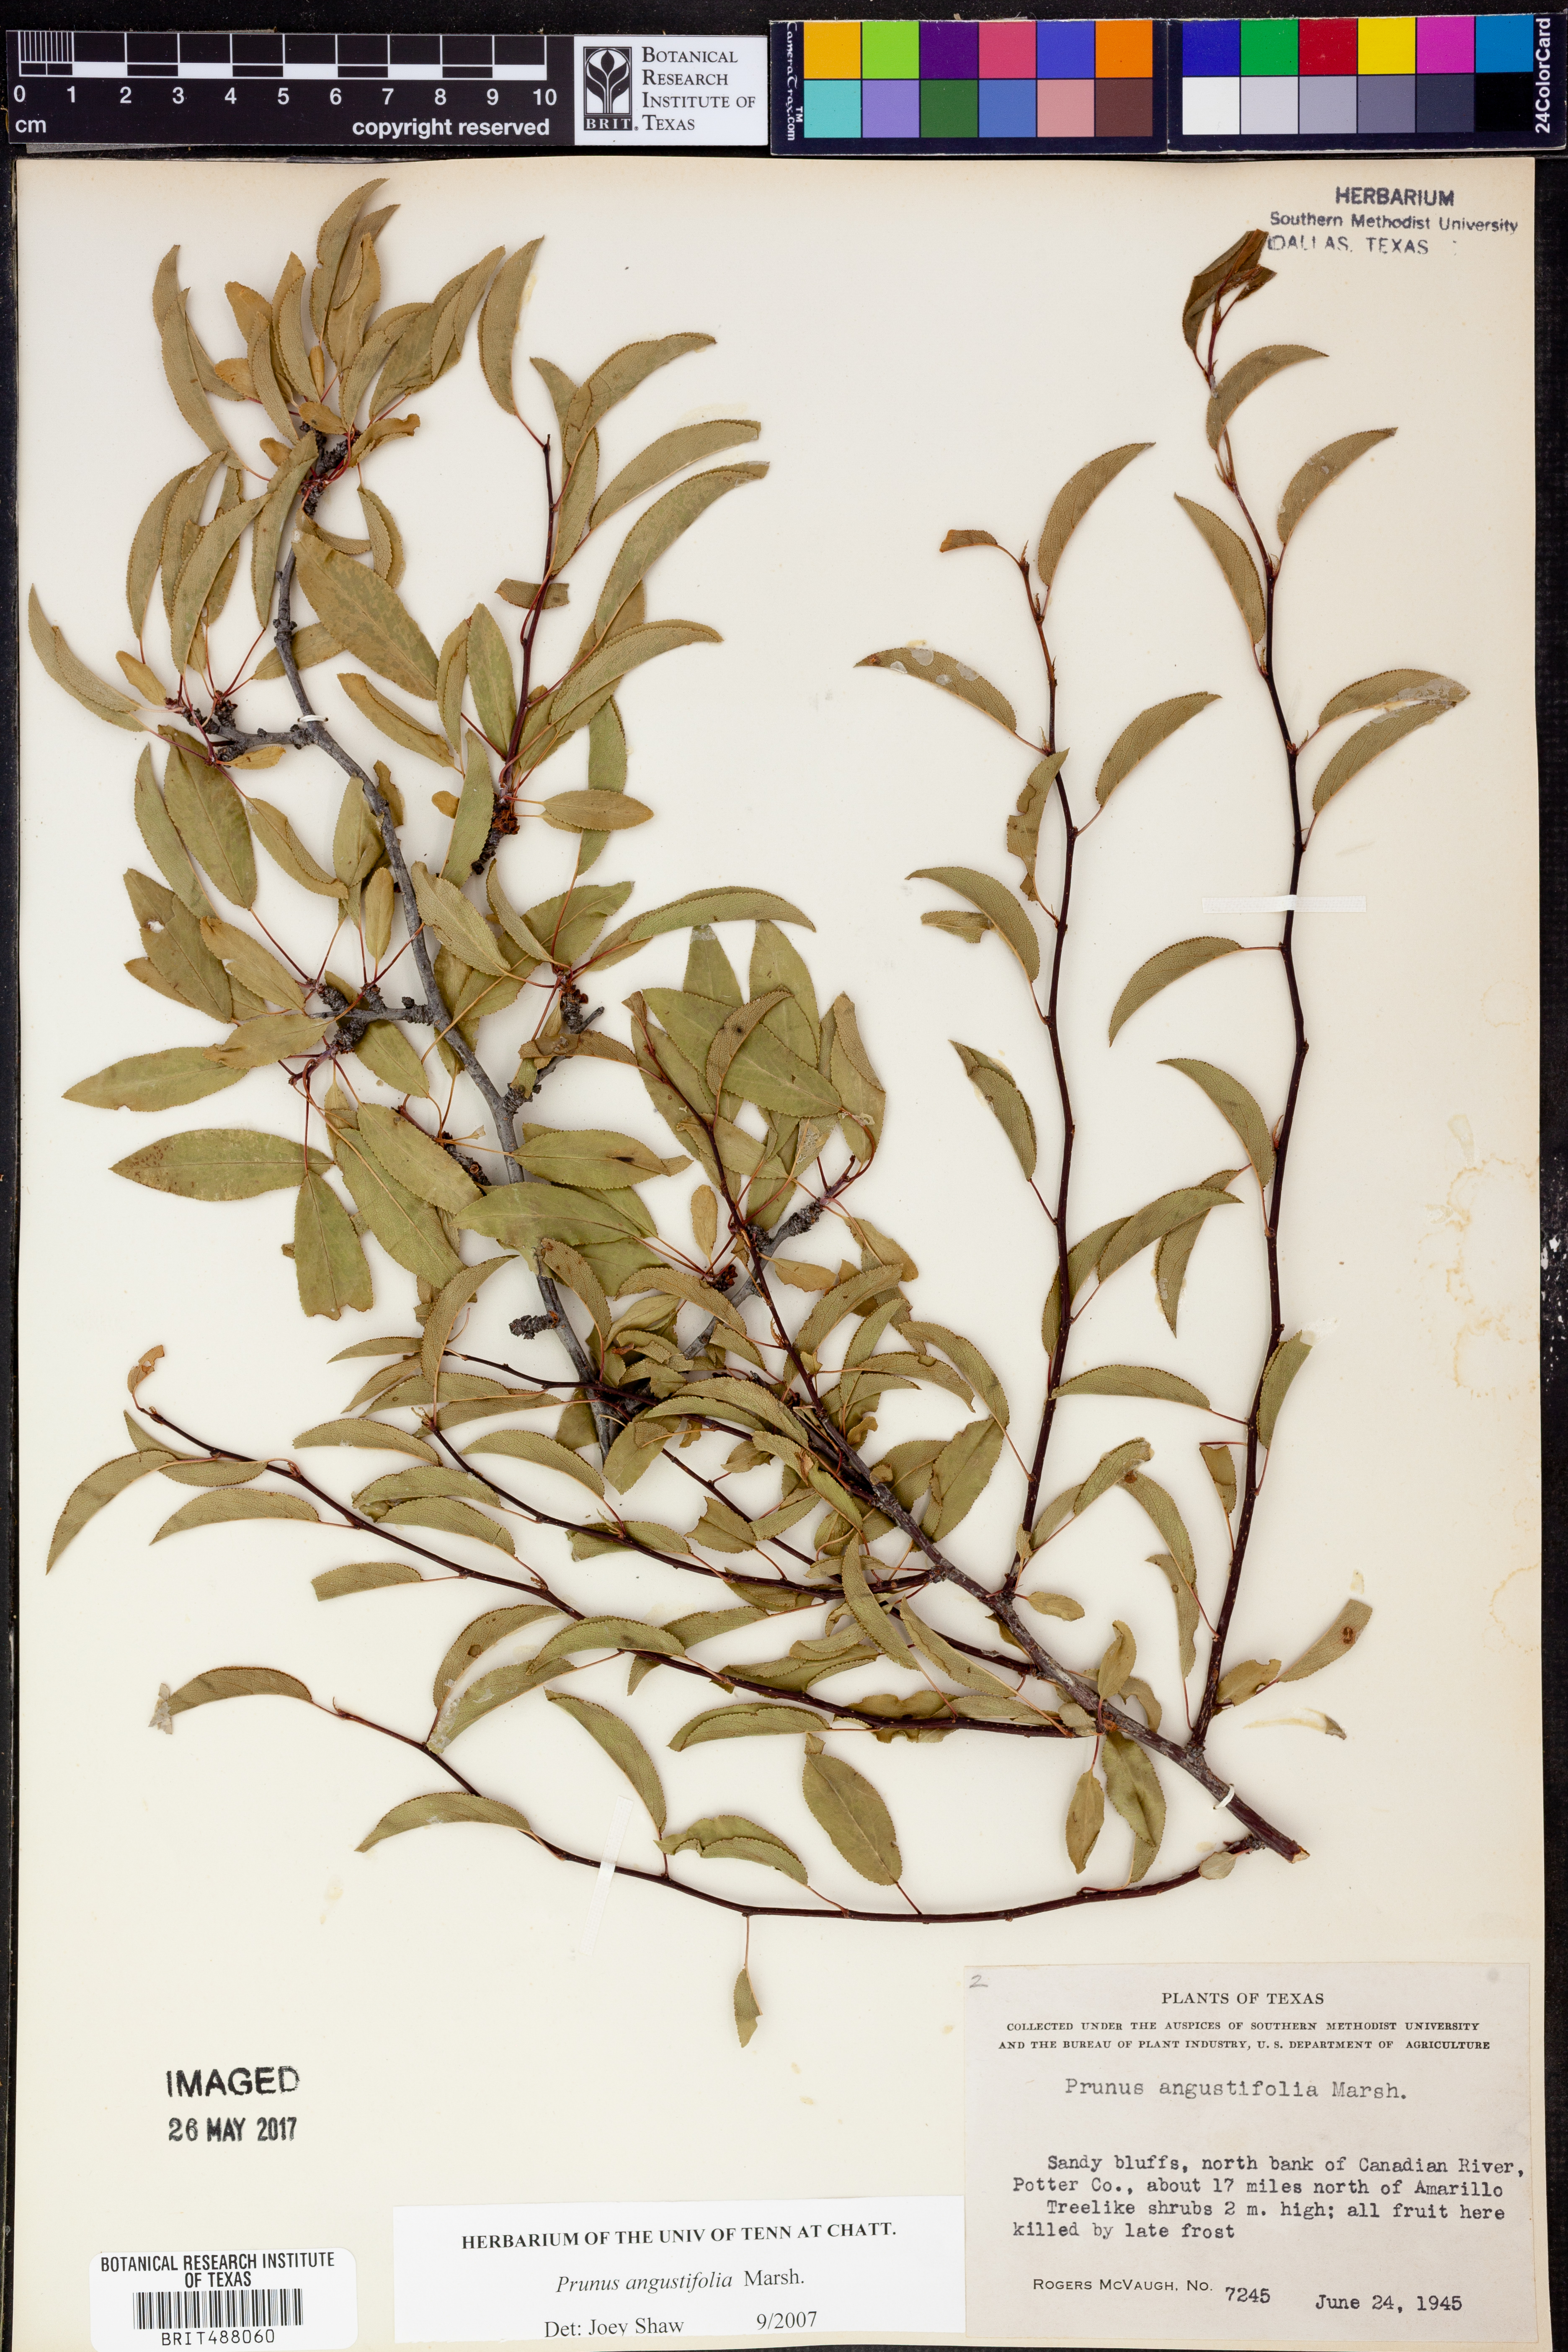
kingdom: Plantae
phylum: Tracheophyta
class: Magnoliopsida
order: Rosales
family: Rosaceae
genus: Prunus
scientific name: Prunus angustifolia
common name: Cherokee plum
